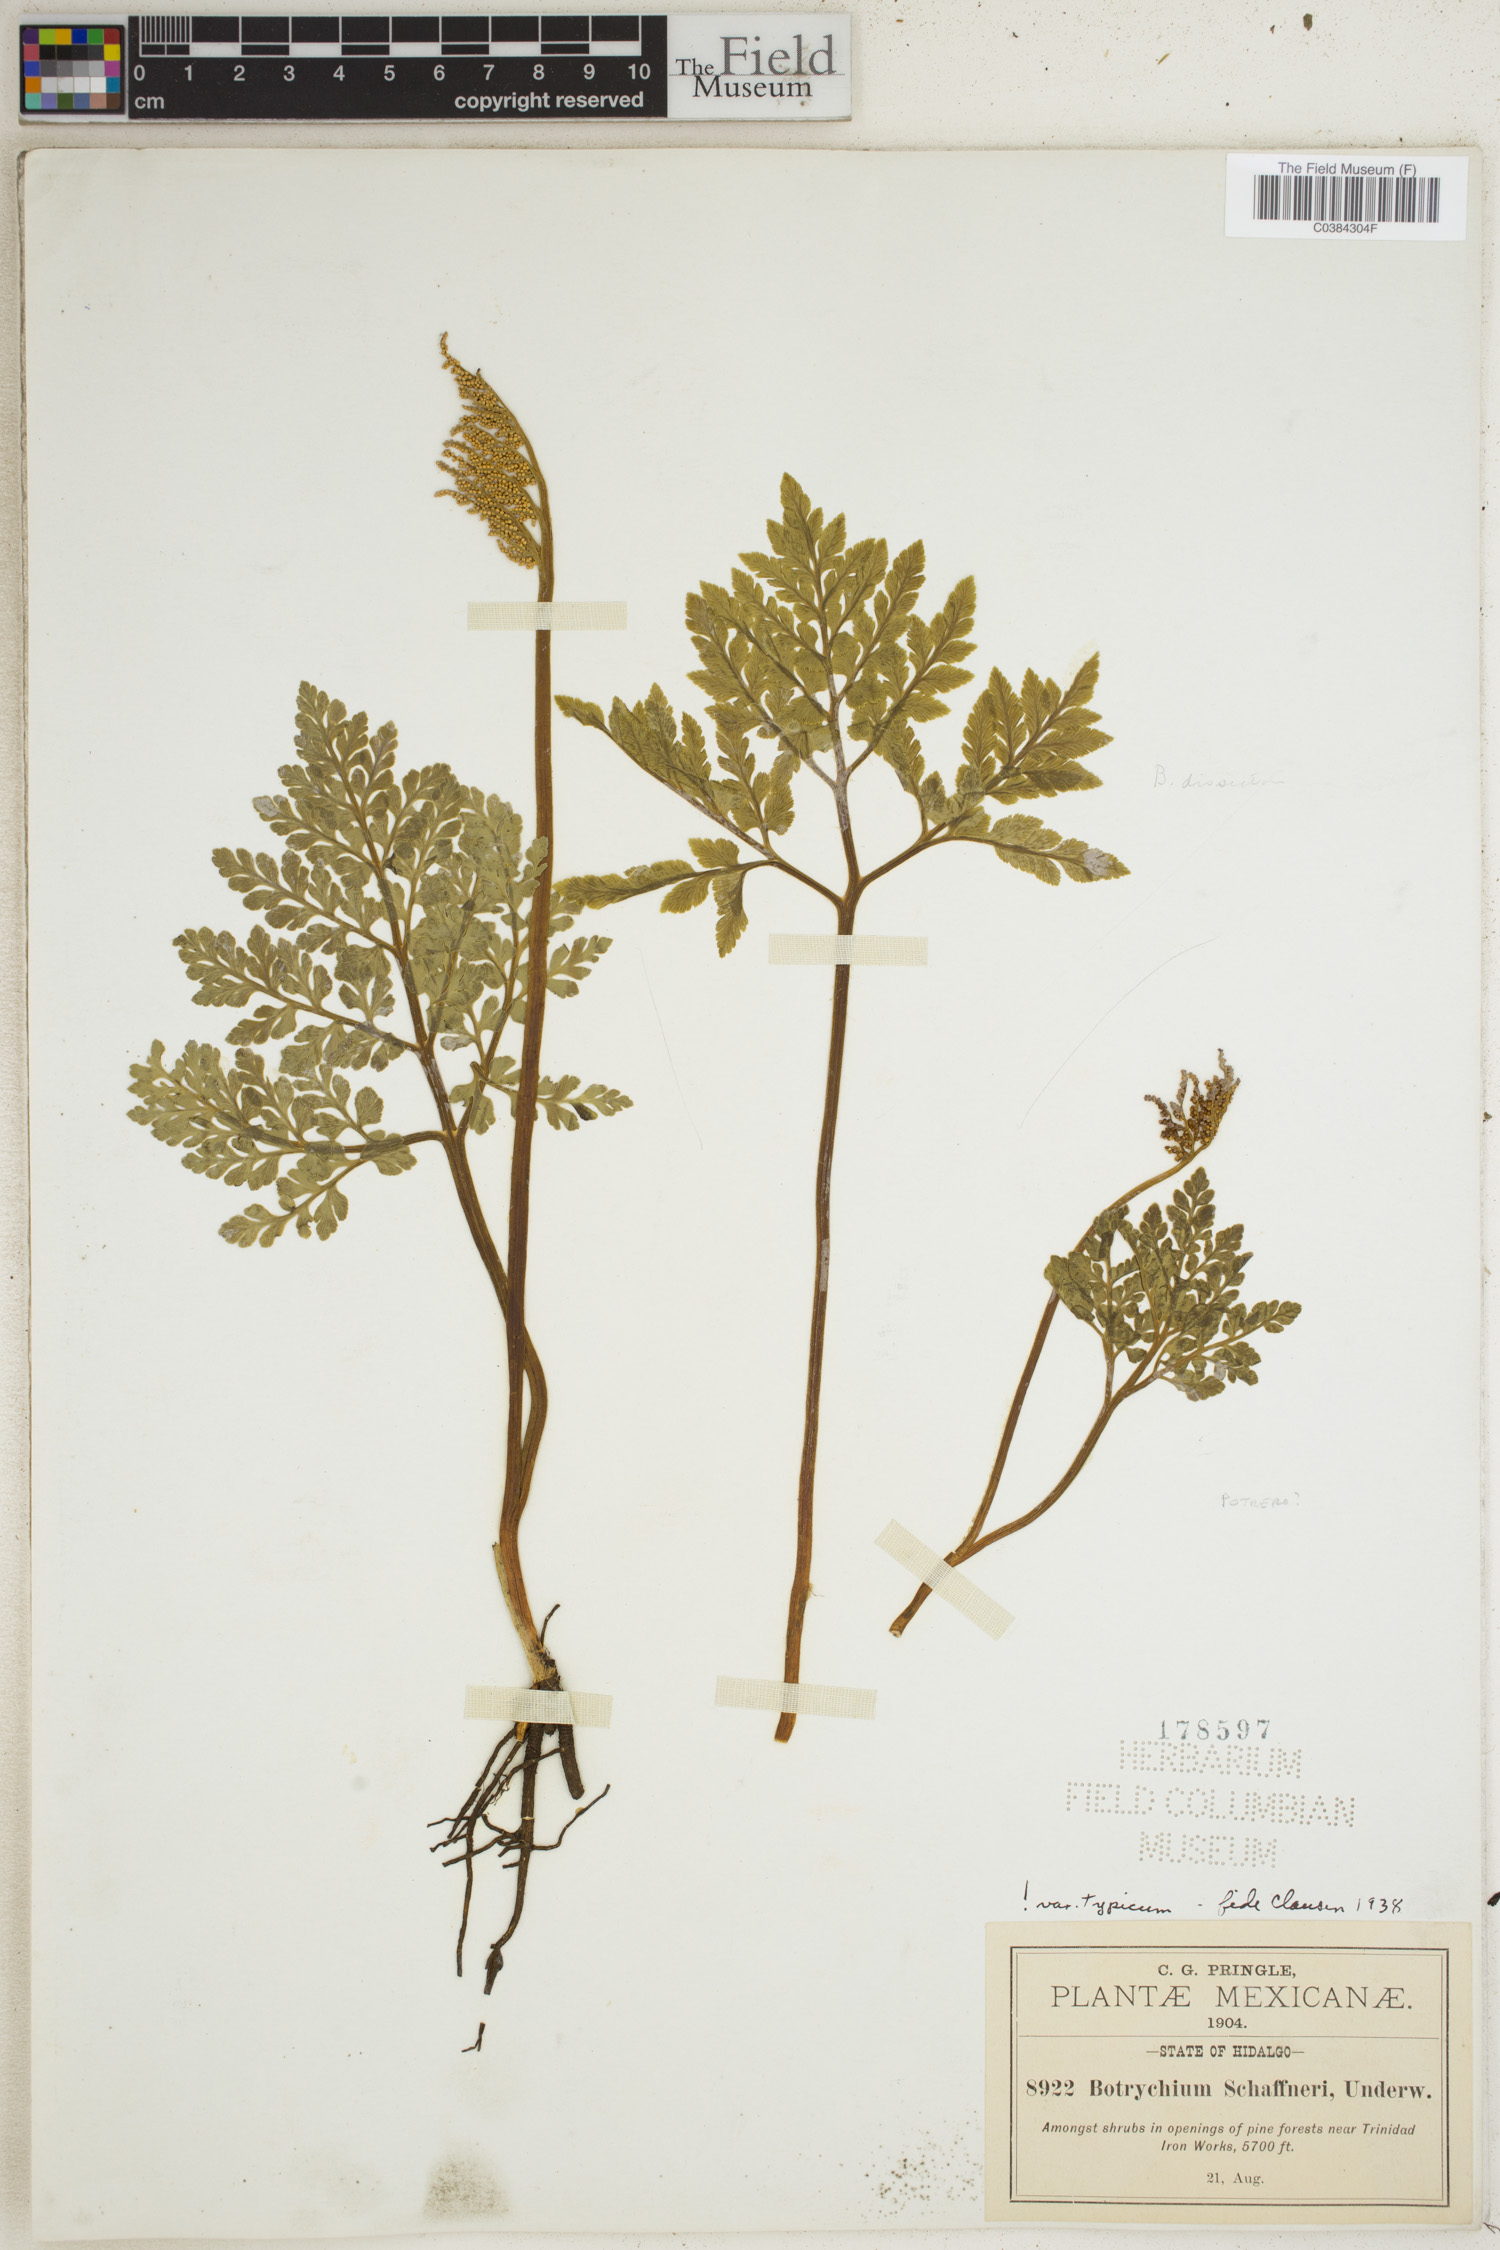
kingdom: Plantae
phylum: Tracheophyta
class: Polypodiopsida
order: Ophioglossales
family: Ophioglossaceae
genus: Sceptridium
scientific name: Sceptridium schaffneri
